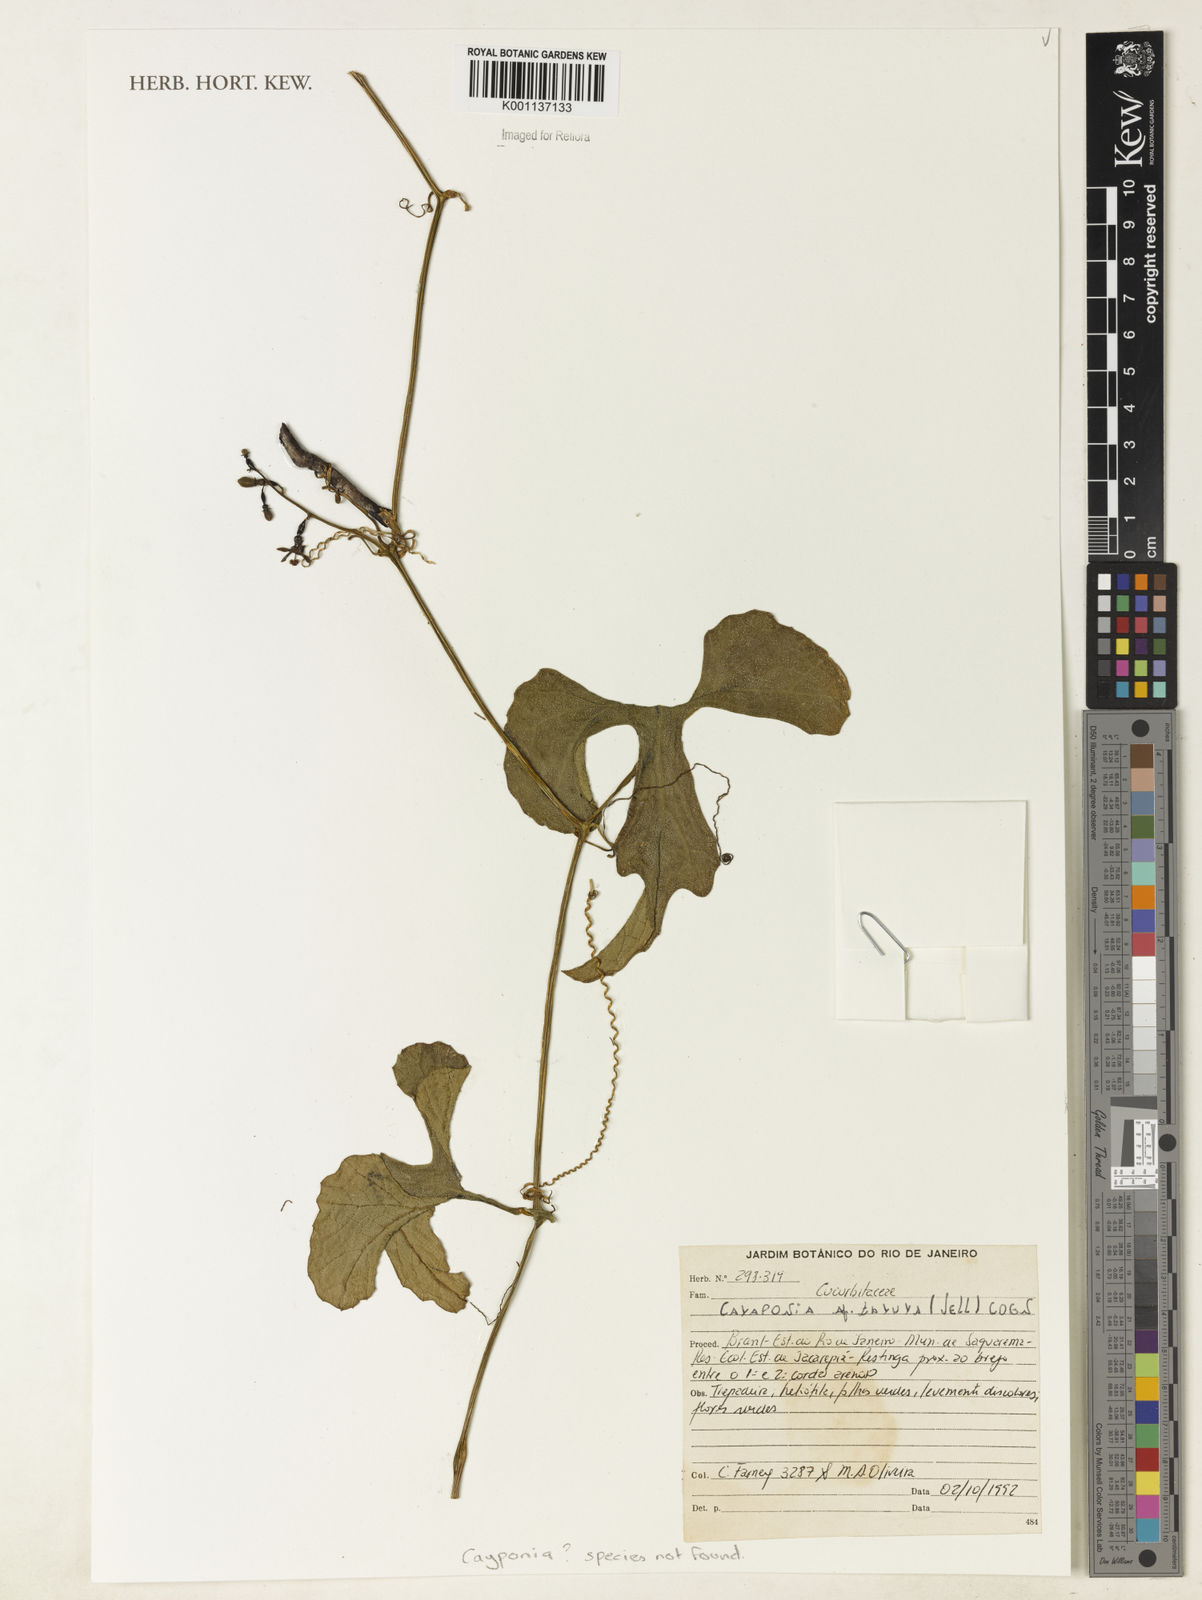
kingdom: Plantae
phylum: Tracheophyta
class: Magnoliopsida
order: Cucurbitales
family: Cucurbitaceae
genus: Cayaponia
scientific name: Cayaponia
